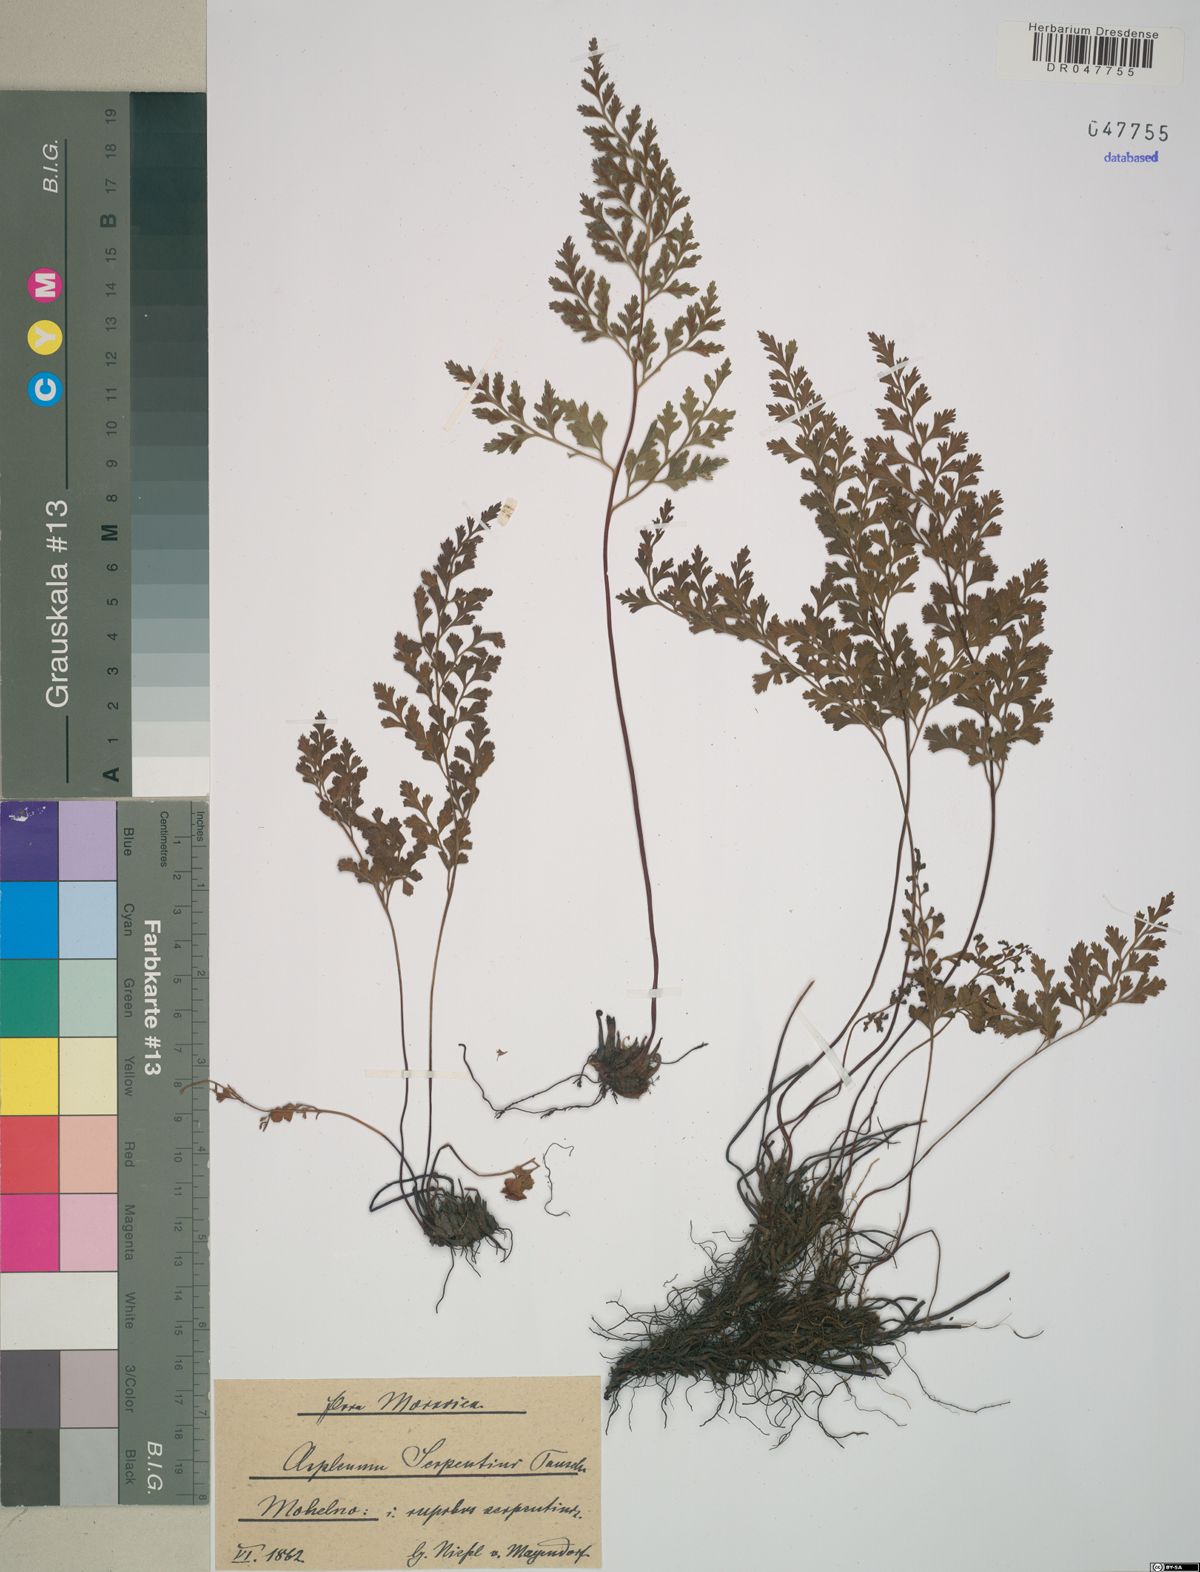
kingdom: Plantae
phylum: Tracheophyta
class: Polypodiopsida
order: Polypodiales
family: Aspleniaceae
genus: Asplenium
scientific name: Asplenium cuneifolium
